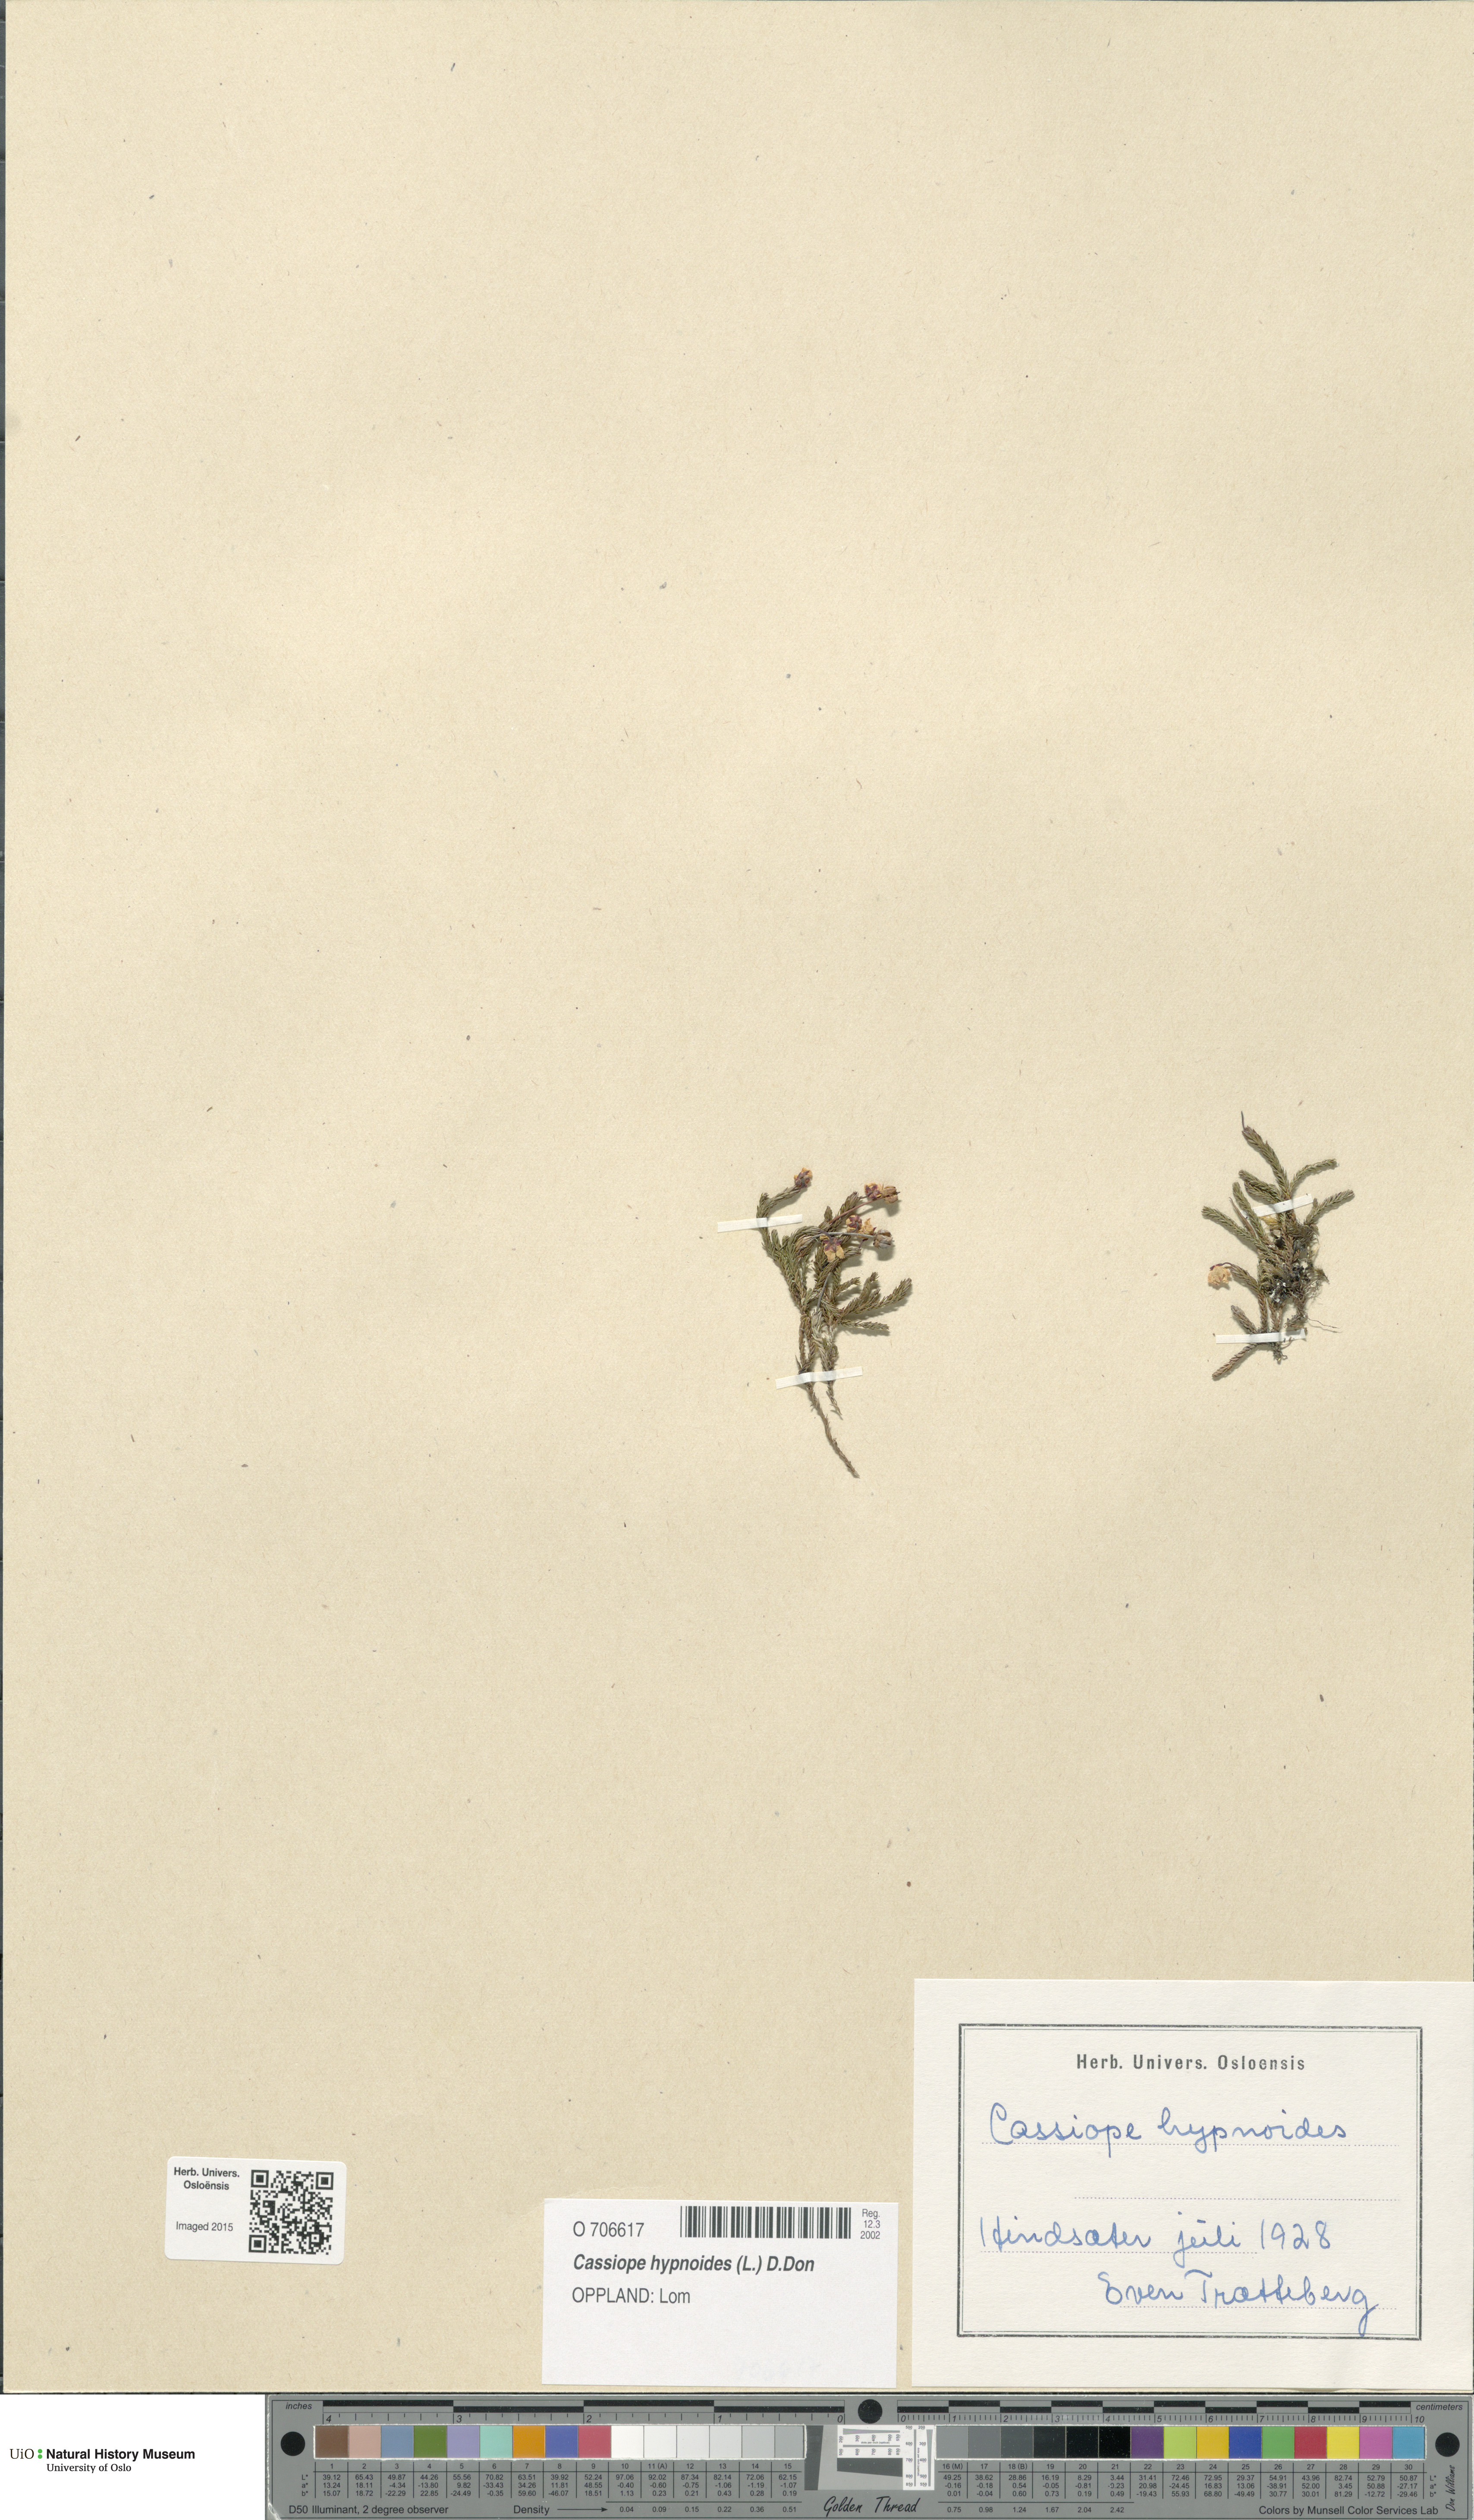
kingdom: Plantae
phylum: Tracheophyta
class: Magnoliopsida
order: Ericales
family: Ericaceae
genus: Harrimanella
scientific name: Harrimanella hypnoides
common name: Moss bell heather
